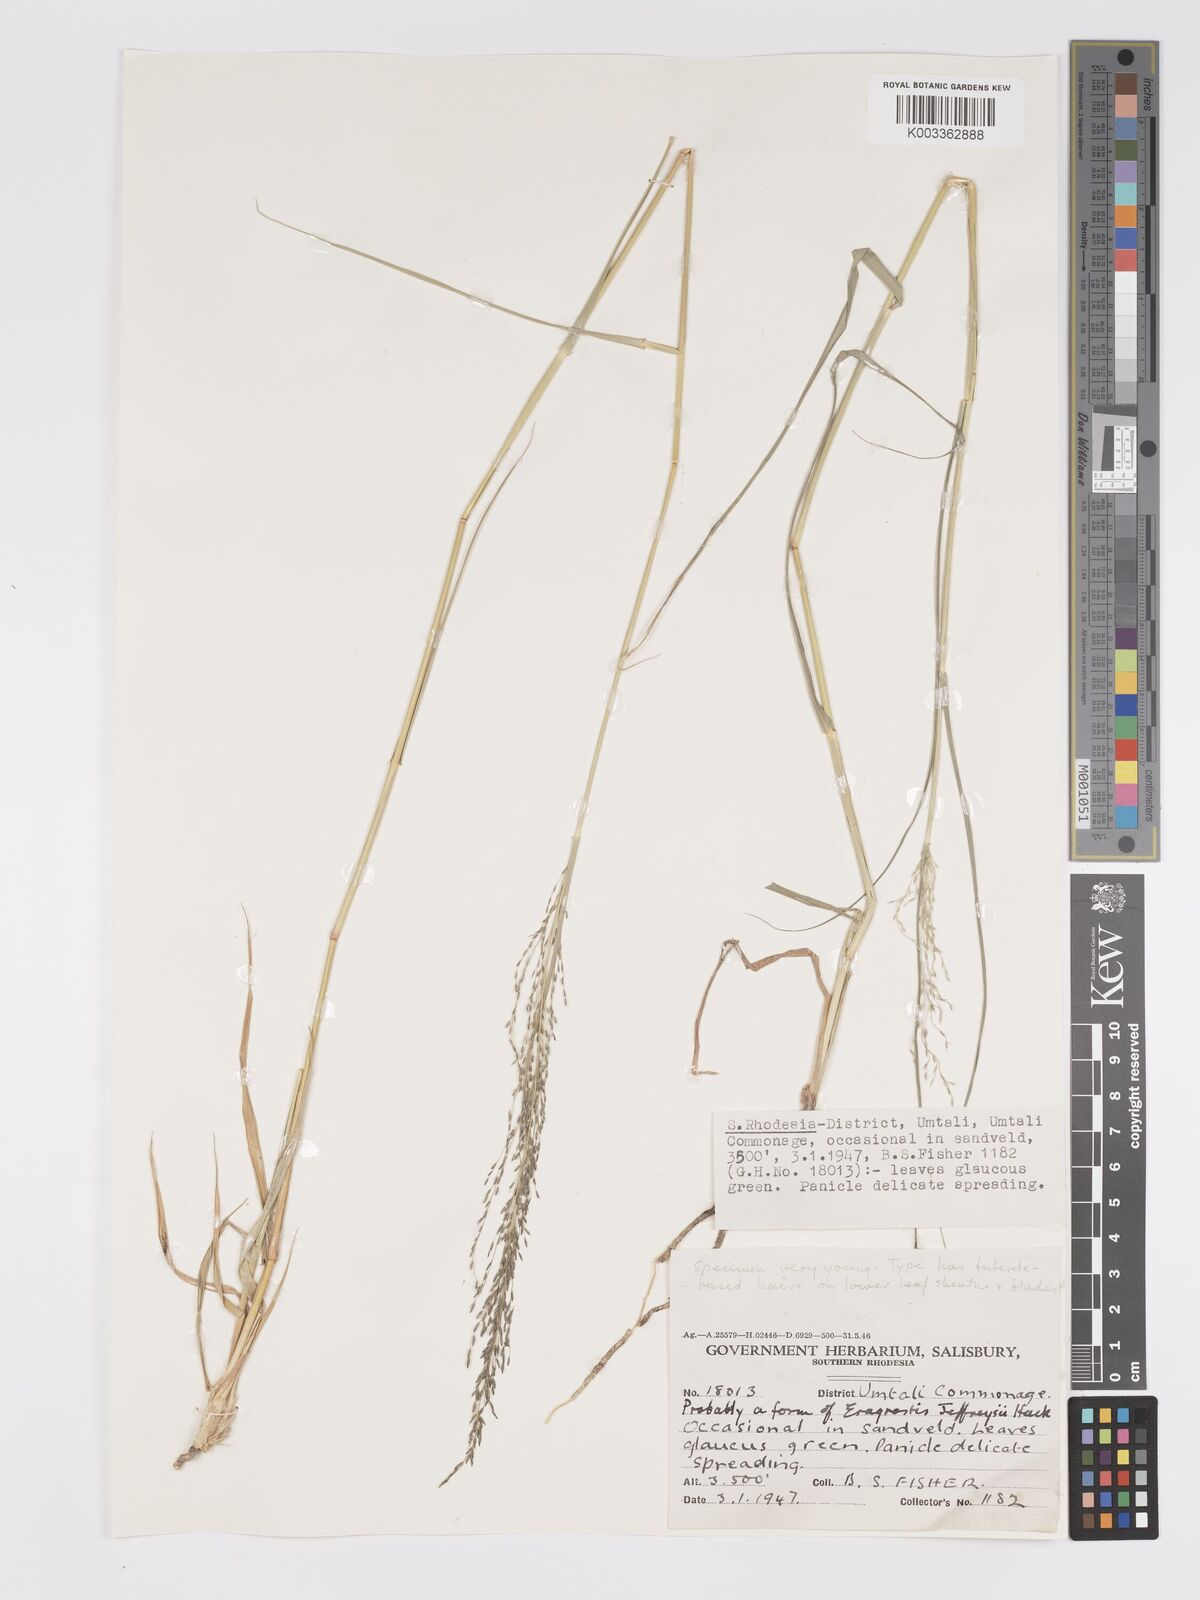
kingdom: Plantae
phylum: Tracheophyta
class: Liliopsida
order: Poales
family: Poaceae
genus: Eragrostis
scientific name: Eragrostis cylindriflora
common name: Cylinderflower lovegrass
